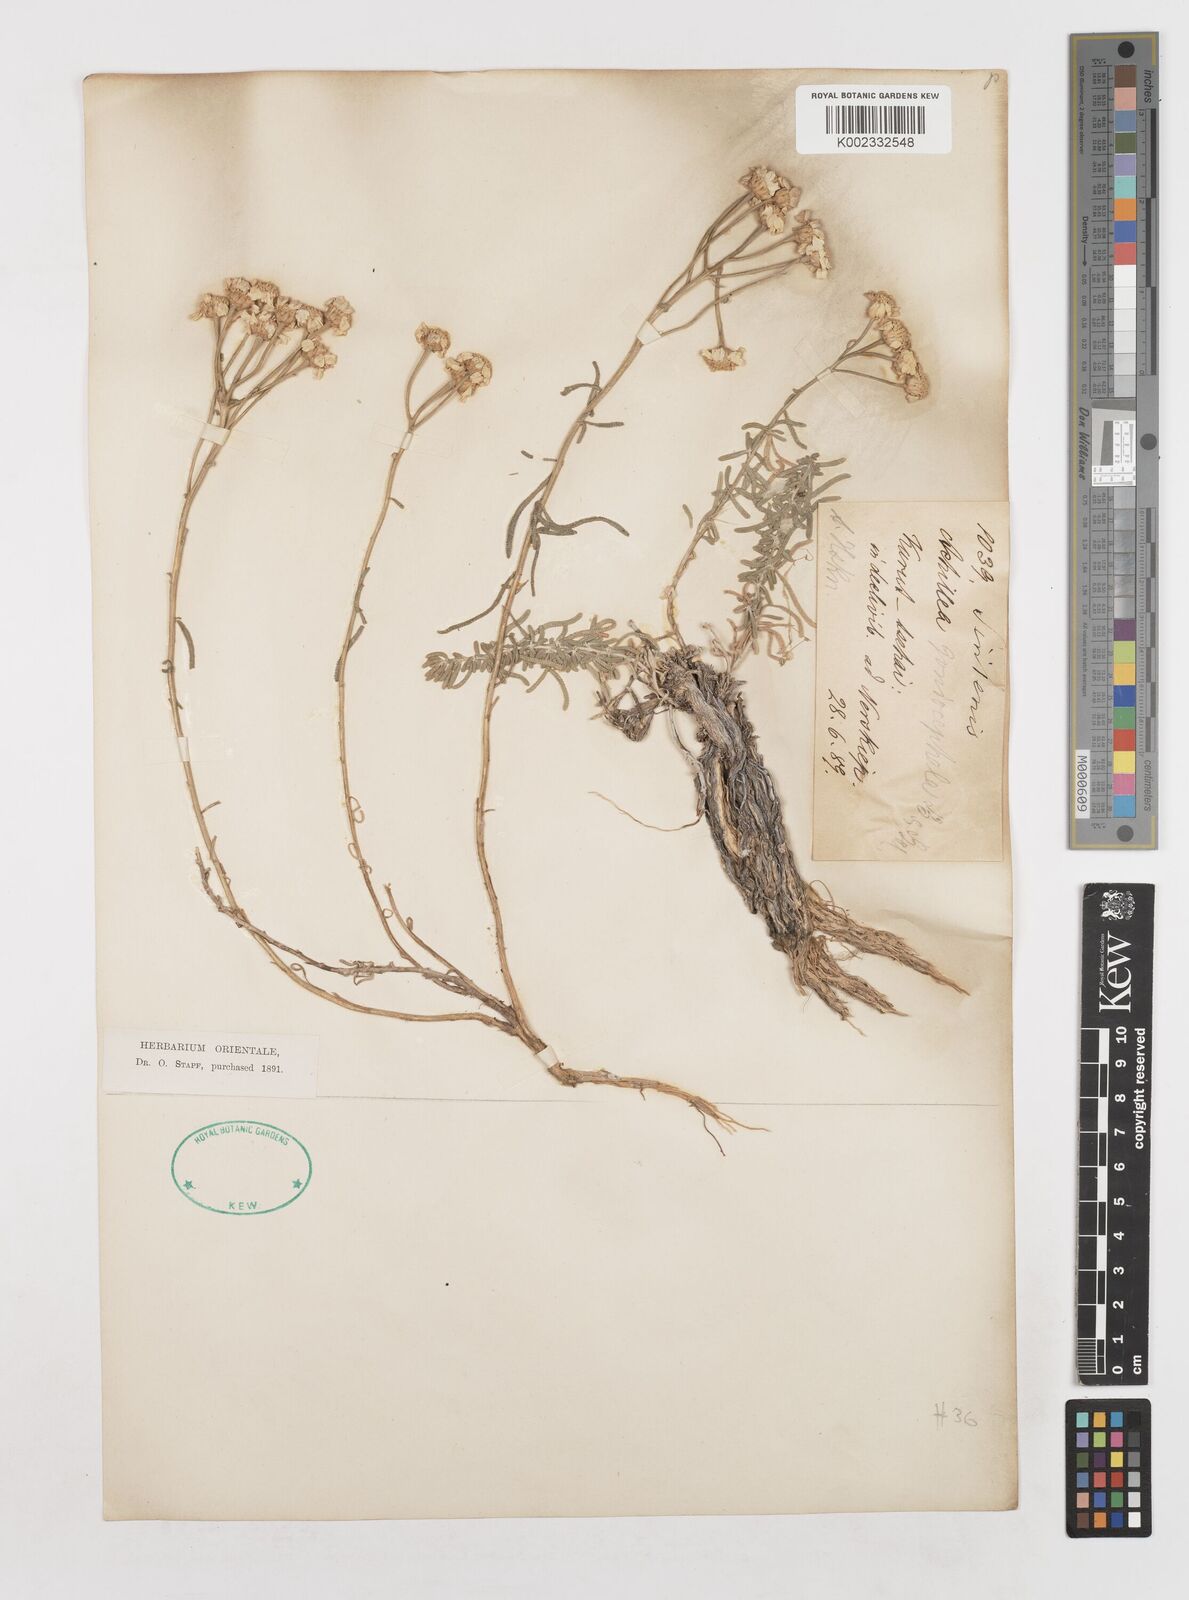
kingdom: Plantae
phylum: Tracheophyta
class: Magnoliopsida
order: Asterales
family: Asteraceae
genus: Achillea
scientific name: Achillea goniocephala
